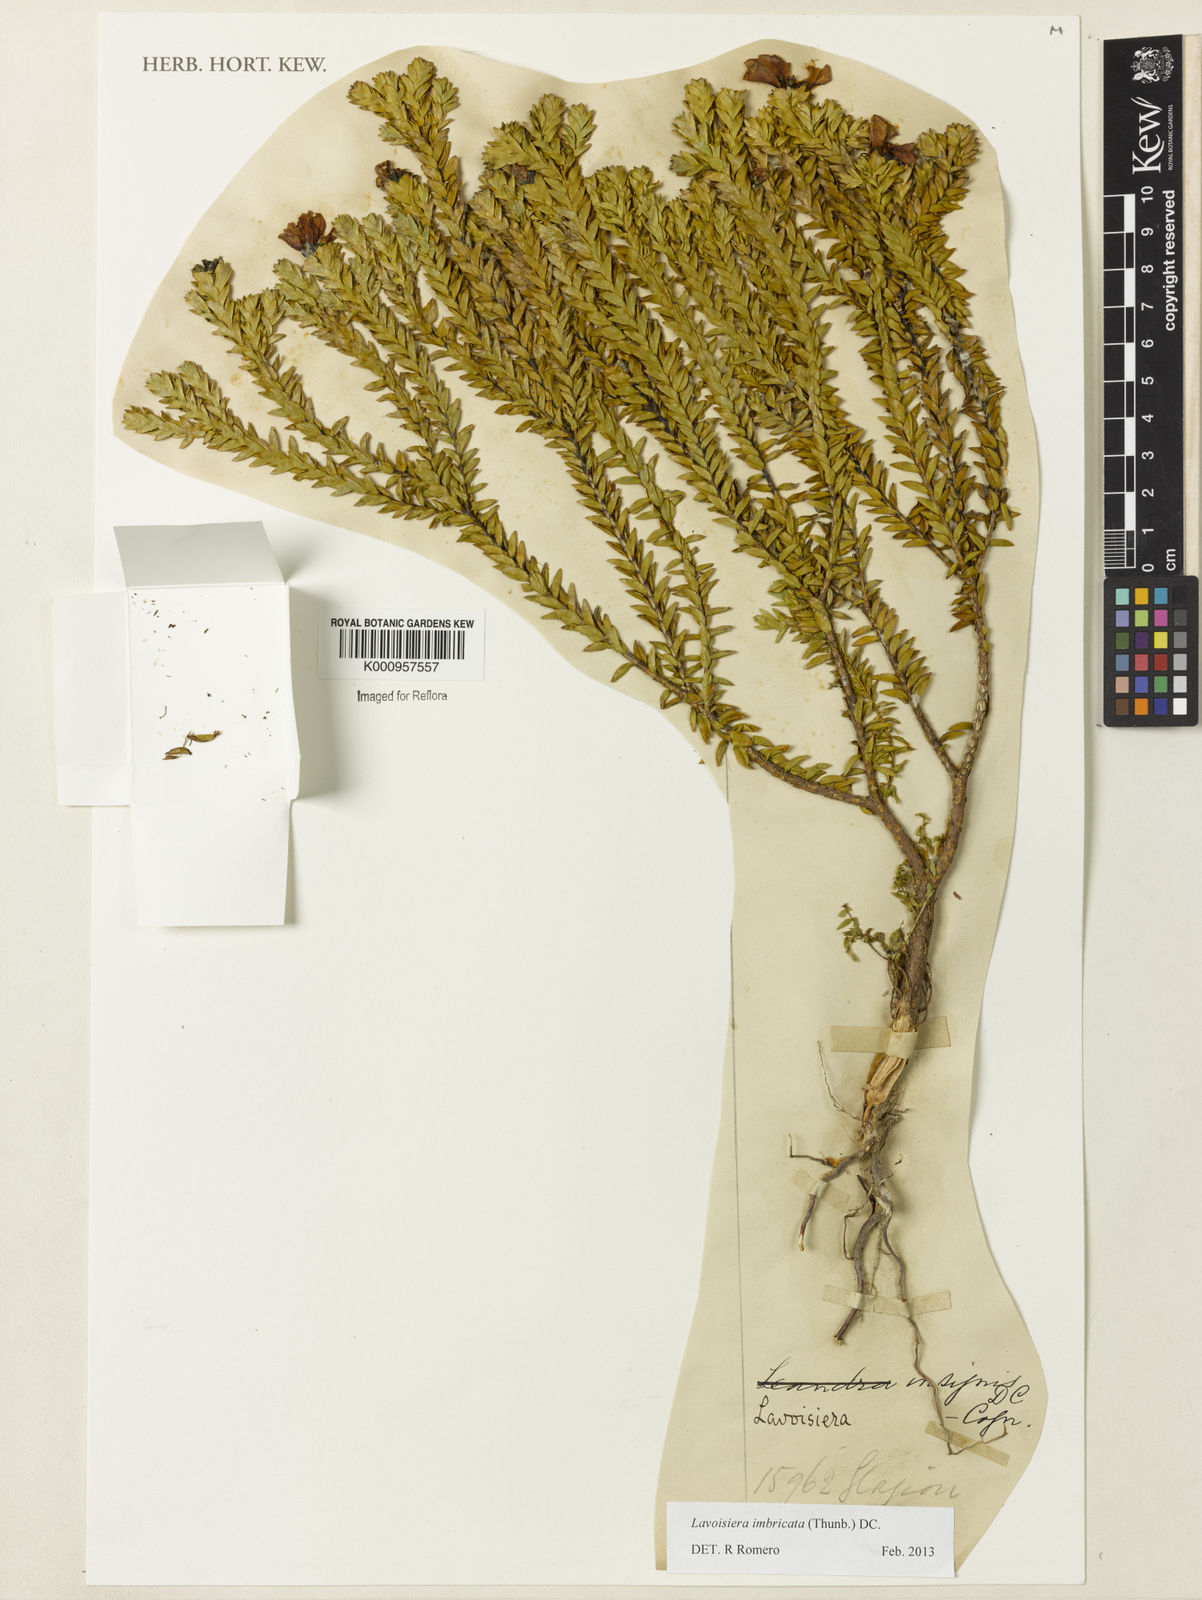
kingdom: Plantae
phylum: Tracheophyta
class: Magnoliopsida
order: Myrtales
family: Melastomataceae
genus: Microlicia
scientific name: Microlicia cataphracta
